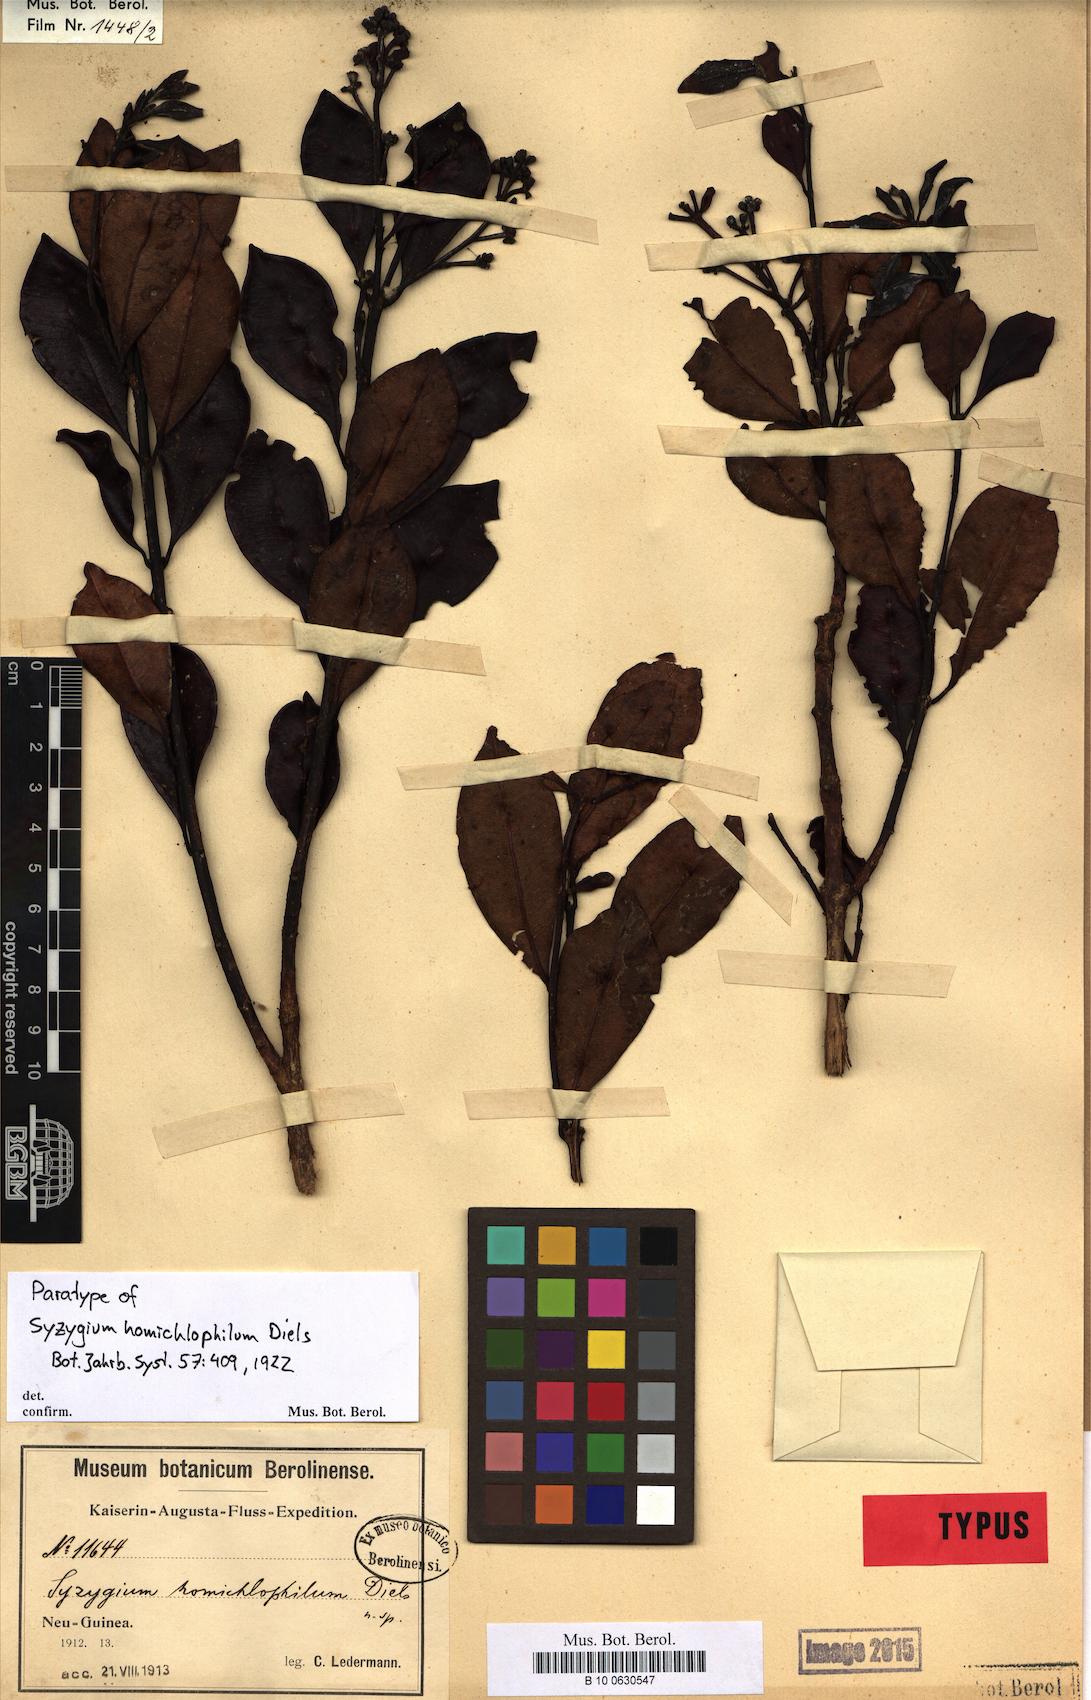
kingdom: Plantae
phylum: Tracheophyta
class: Magnoliopsida
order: Myrtales
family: Myrtaceae
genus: Syzygium
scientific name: Syzygium homichlophilum
